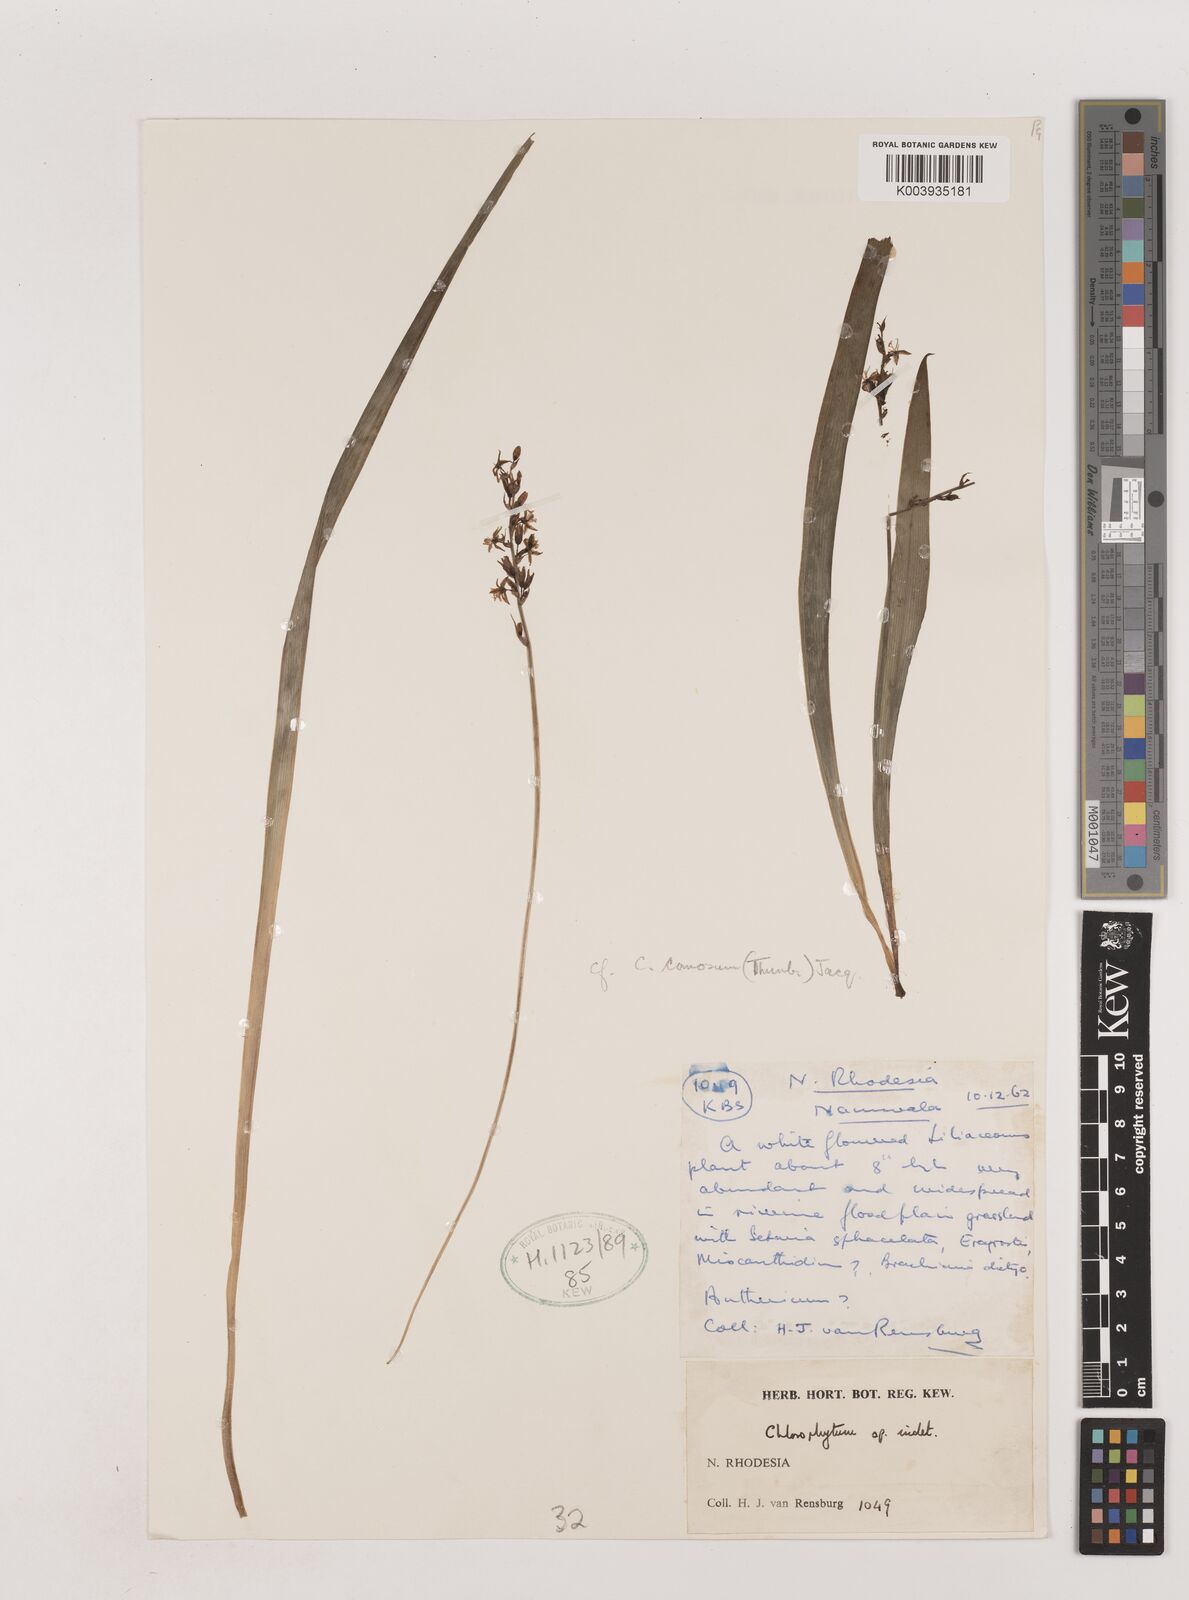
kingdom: Plantae
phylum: Tracheophyta
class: Liliopsida
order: Asparagales
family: Asparagaceae
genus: Chlorophytum
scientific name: Chlorophytum comosum
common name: Spider plant
